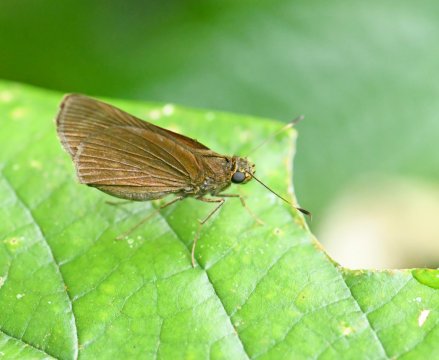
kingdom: Animalia
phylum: Arthropoda
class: Insecta
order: Lepidoptera
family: Hesperiidae
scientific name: Hesperiidae
